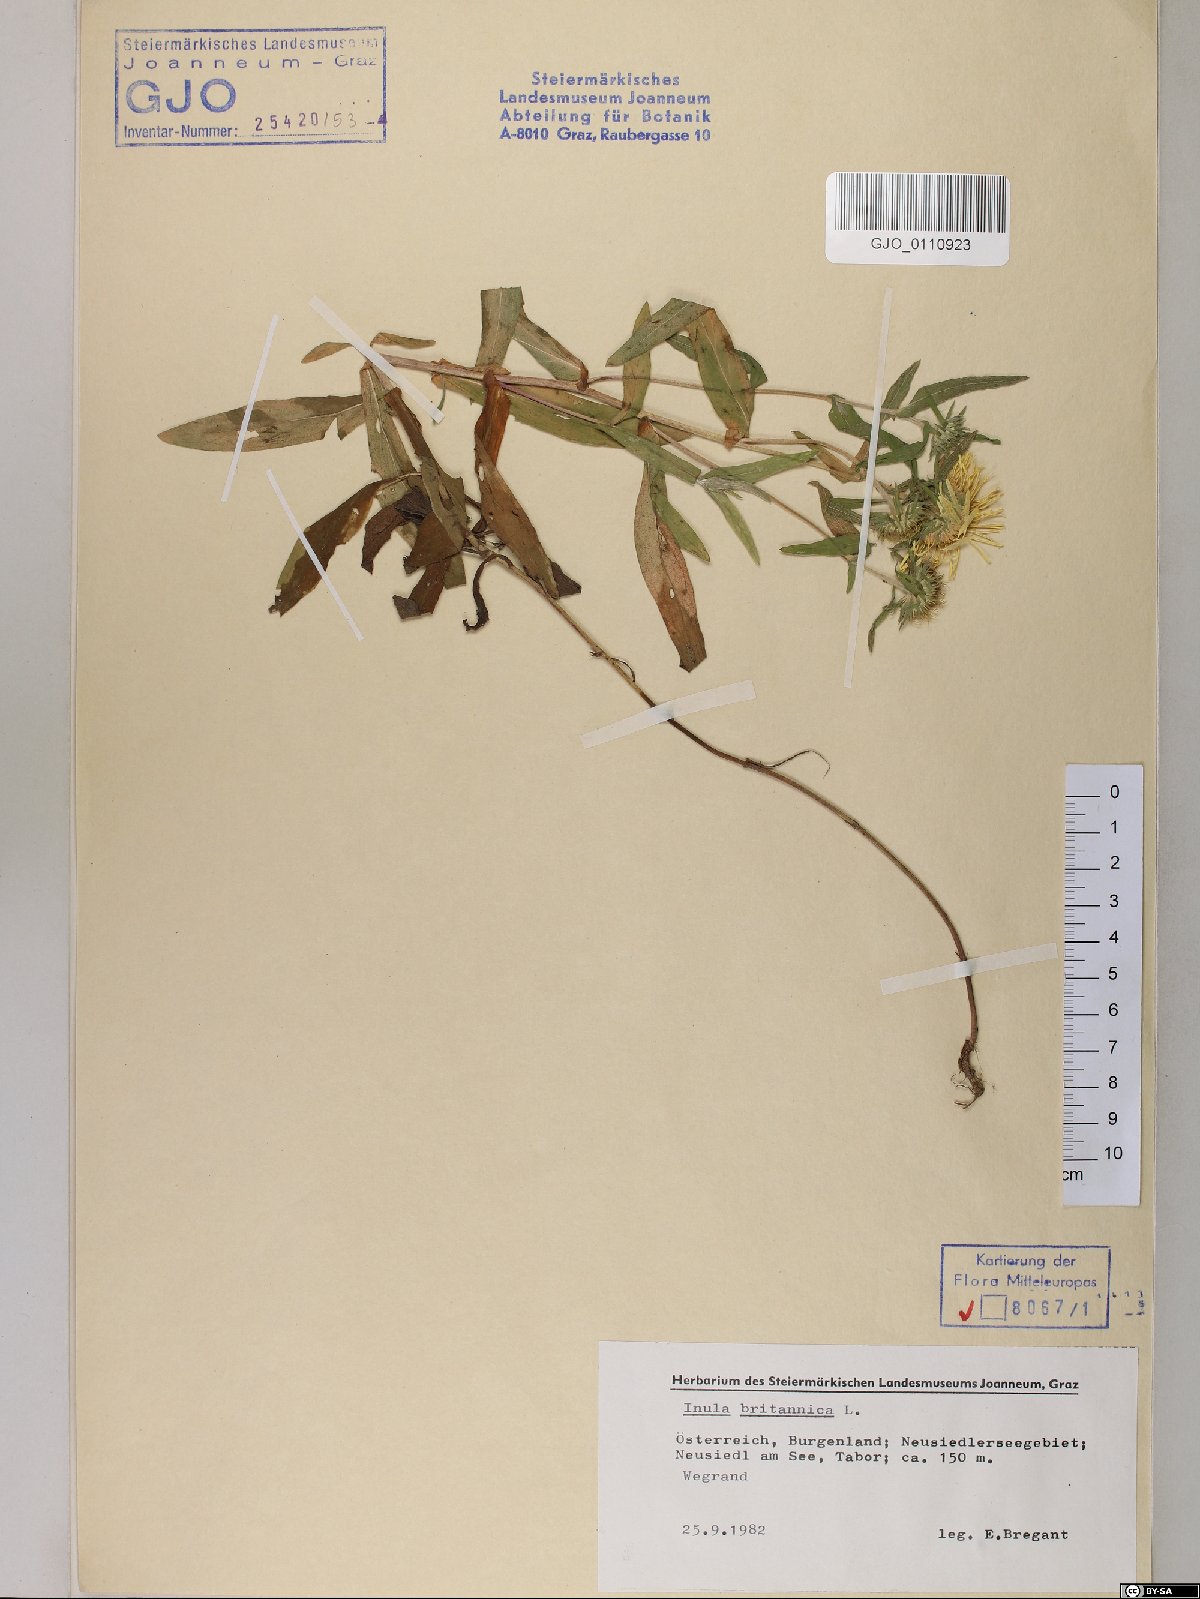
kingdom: Plantae
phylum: Tracheophyta
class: Magnoliopsida
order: Asterales
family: Asteraceae
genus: Pentanema
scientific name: Pentanema britannicum
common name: British elecampane
